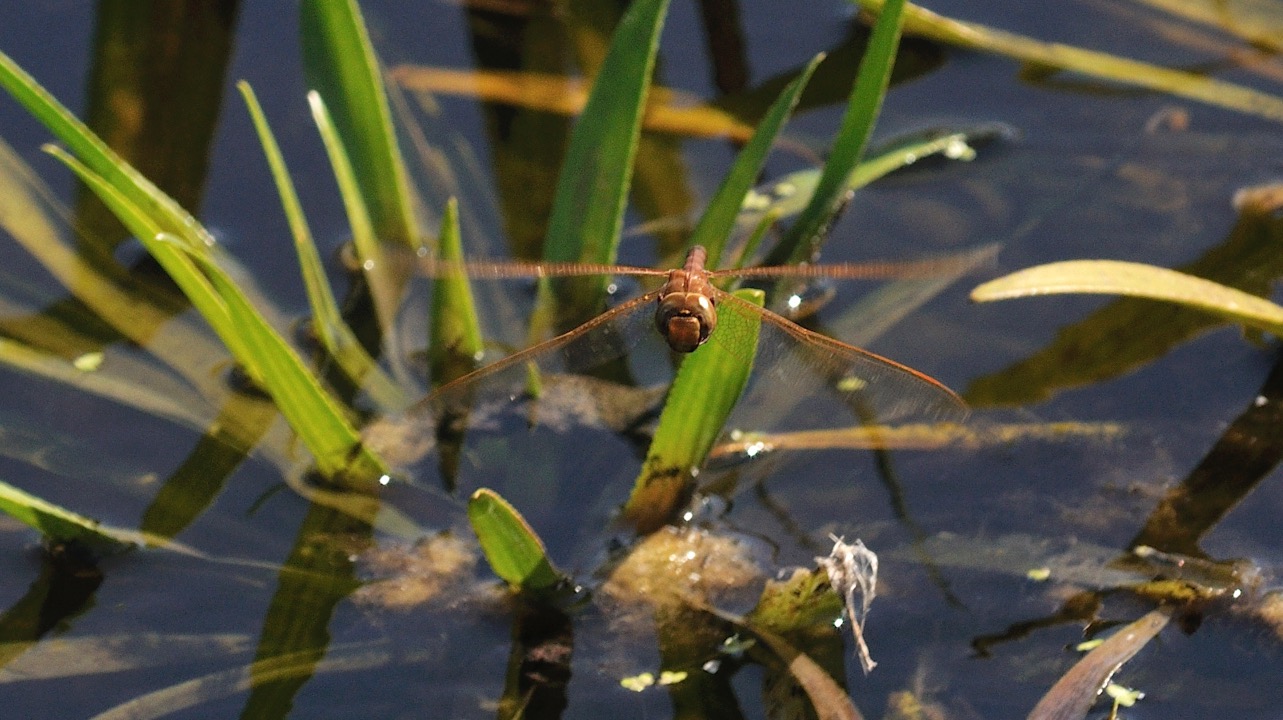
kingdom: Animalia
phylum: Arthropoda
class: Insecta
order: Odonata
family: Aeshnidae
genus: Aeshna
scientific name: Aeshna grandis
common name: Brun mosaikguldsmed
